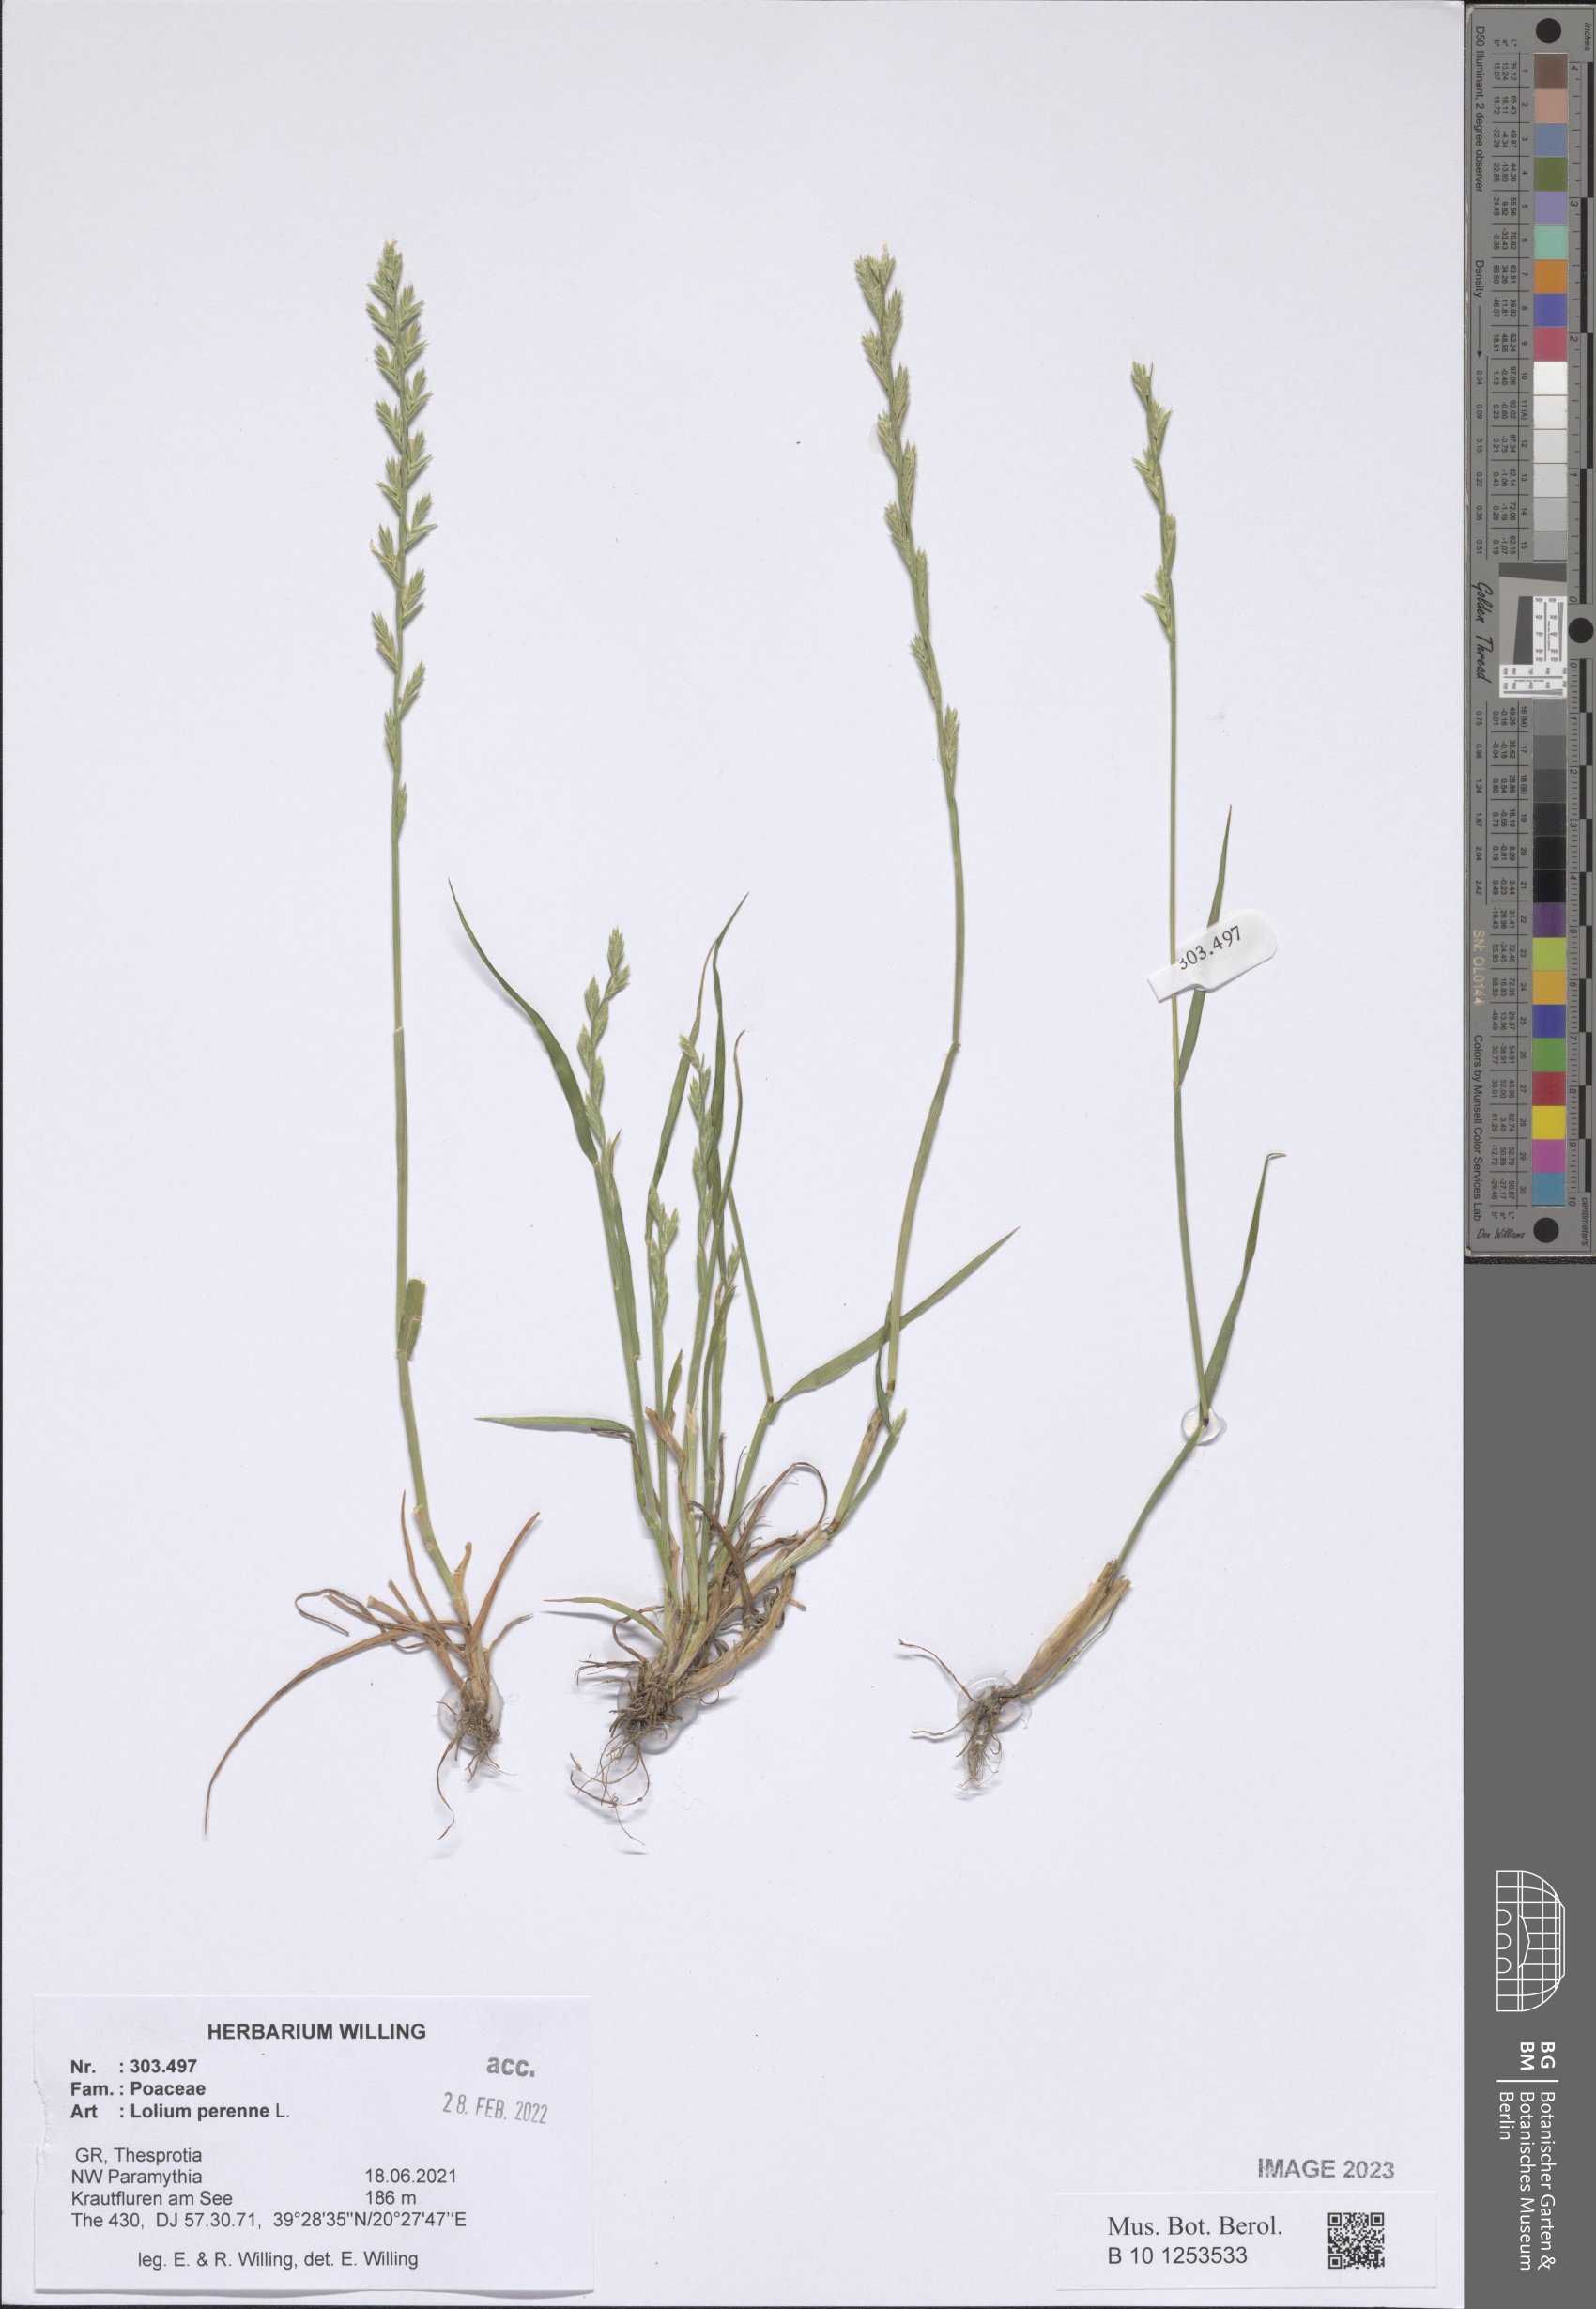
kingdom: Plantae
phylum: Tracheophyta
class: Liliopsida
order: Poales
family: Poaceae
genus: Lolium
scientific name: Lolium perenne
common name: Perennial ryegrass
